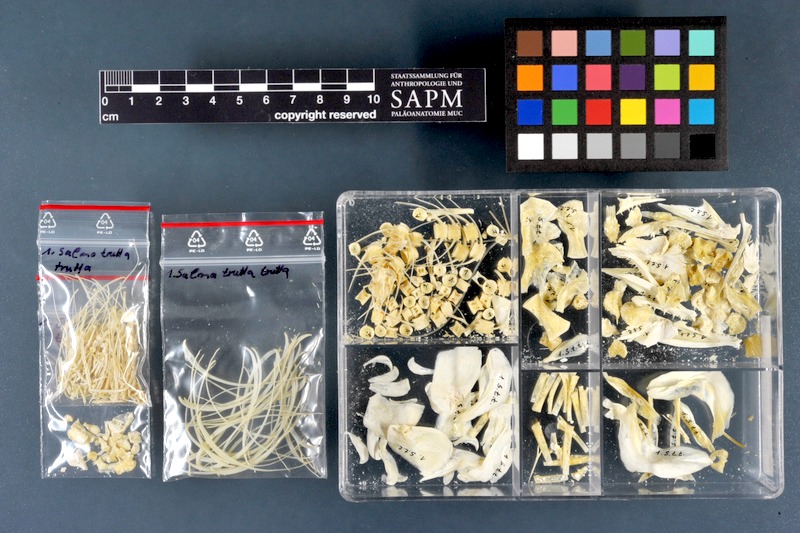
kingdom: Animalia
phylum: Chordata
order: Salmoniformes
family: Salmonidae
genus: Salmo
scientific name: Salmo trutta
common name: Brown trout
